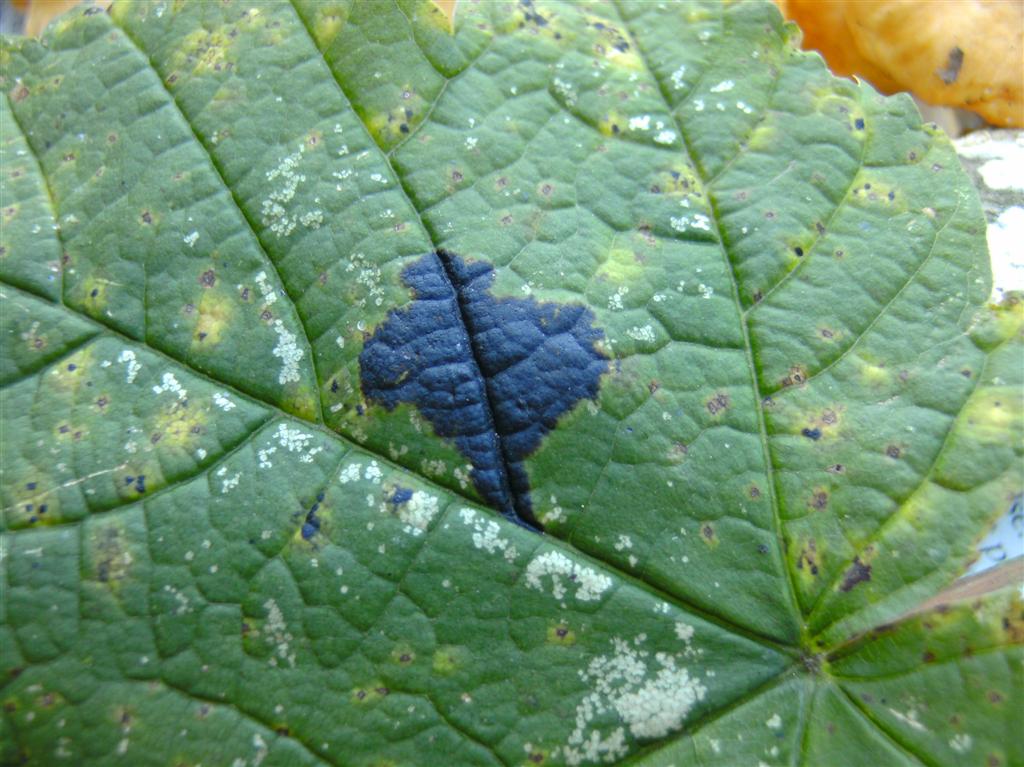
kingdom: Fungi
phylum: Ascomycota
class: Leotiomycetes
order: Rhytismatales
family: Rhytismataceae
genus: Rhytisma
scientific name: Rhytisma acerinum
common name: ahorn-rynkeplet
